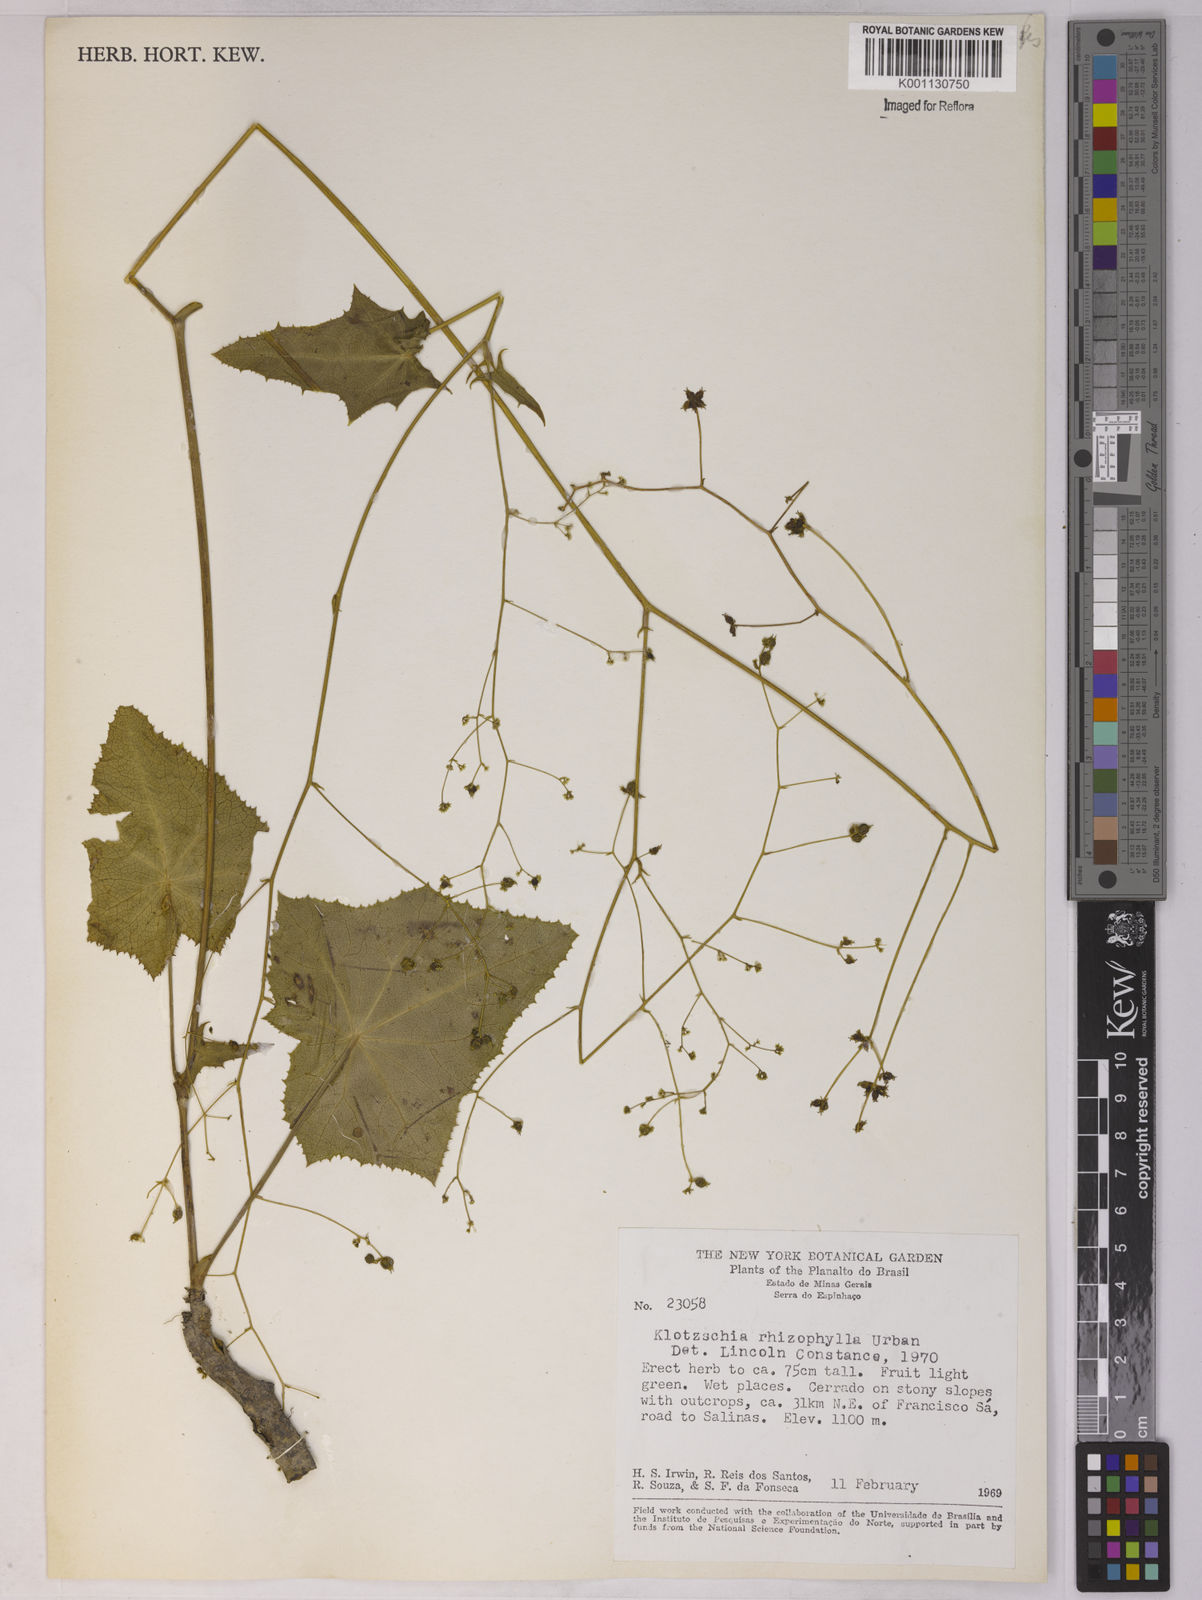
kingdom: Plantae
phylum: Tracheophyta
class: Magnoliopsida
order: Apiales
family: Apiaceae
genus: Klotzschia
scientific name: Klotzschia brasiliensis
